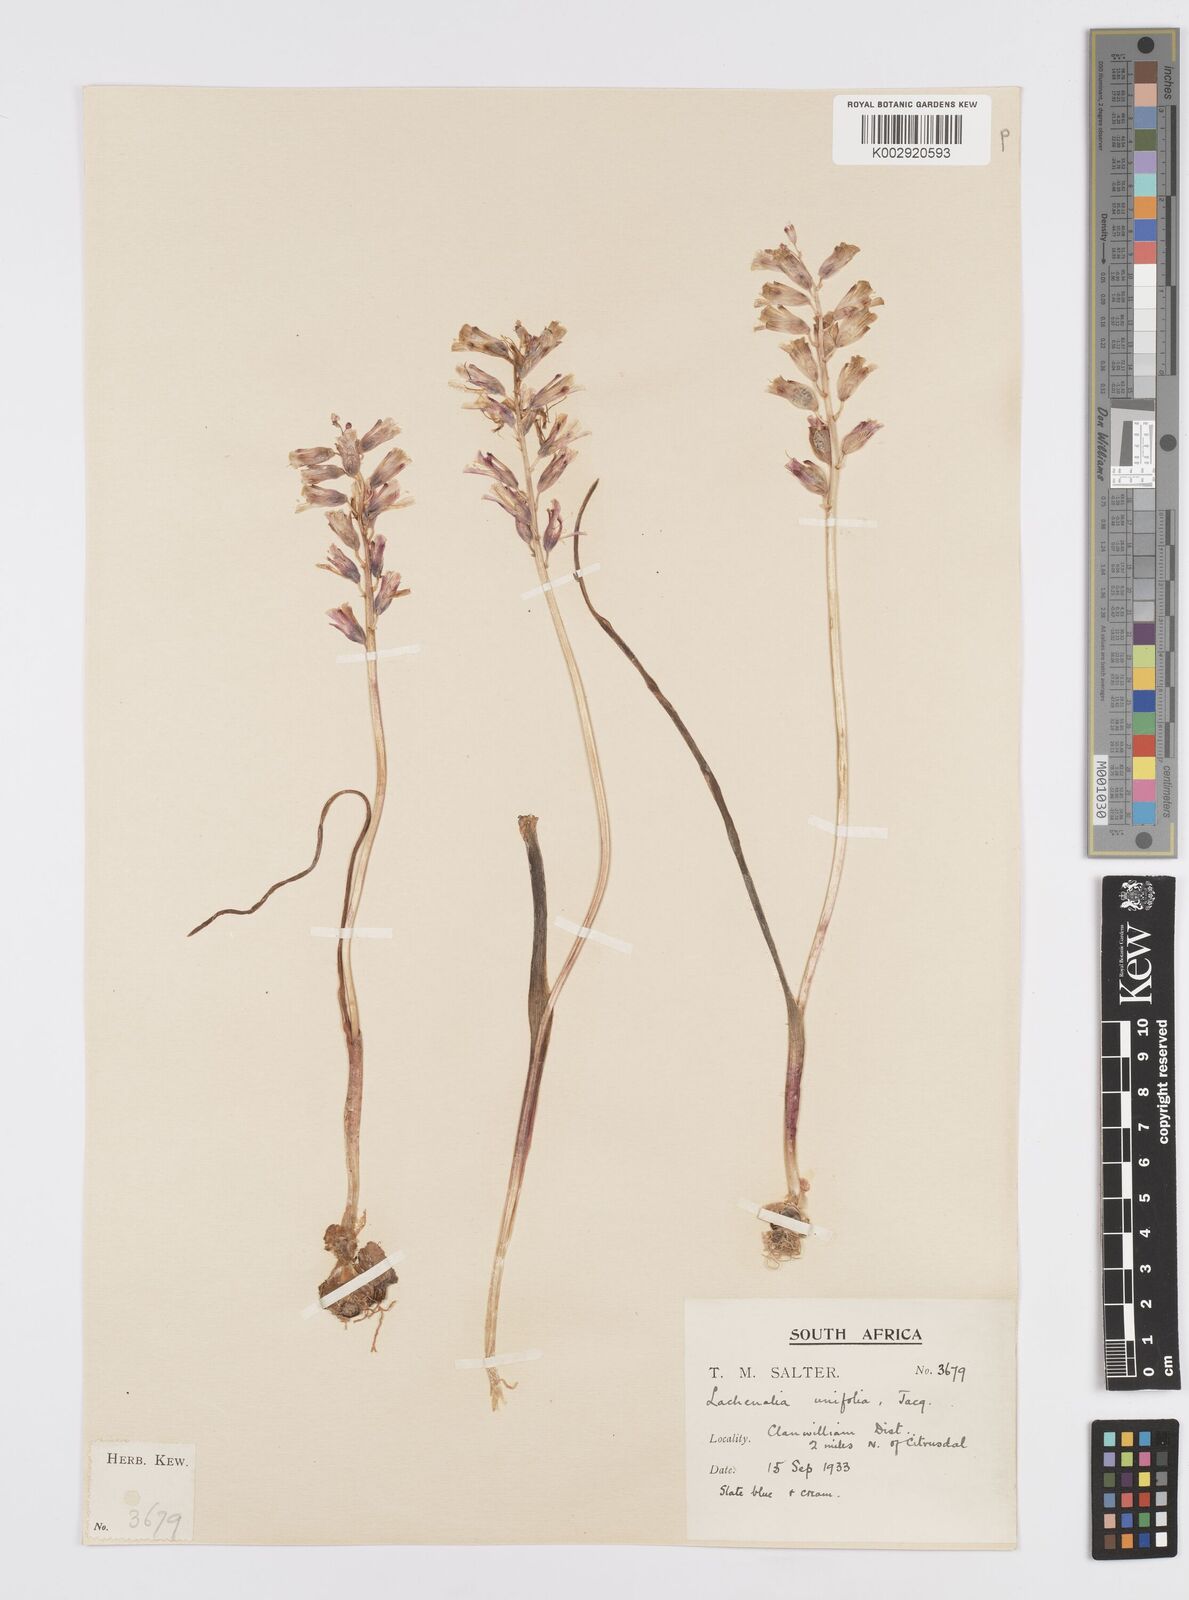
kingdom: Plantae
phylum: Tracheophyta
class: Liliopsida
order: Asparagales
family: Asparagaceae
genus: Lachenalia
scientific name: Lachenalia unifolia
